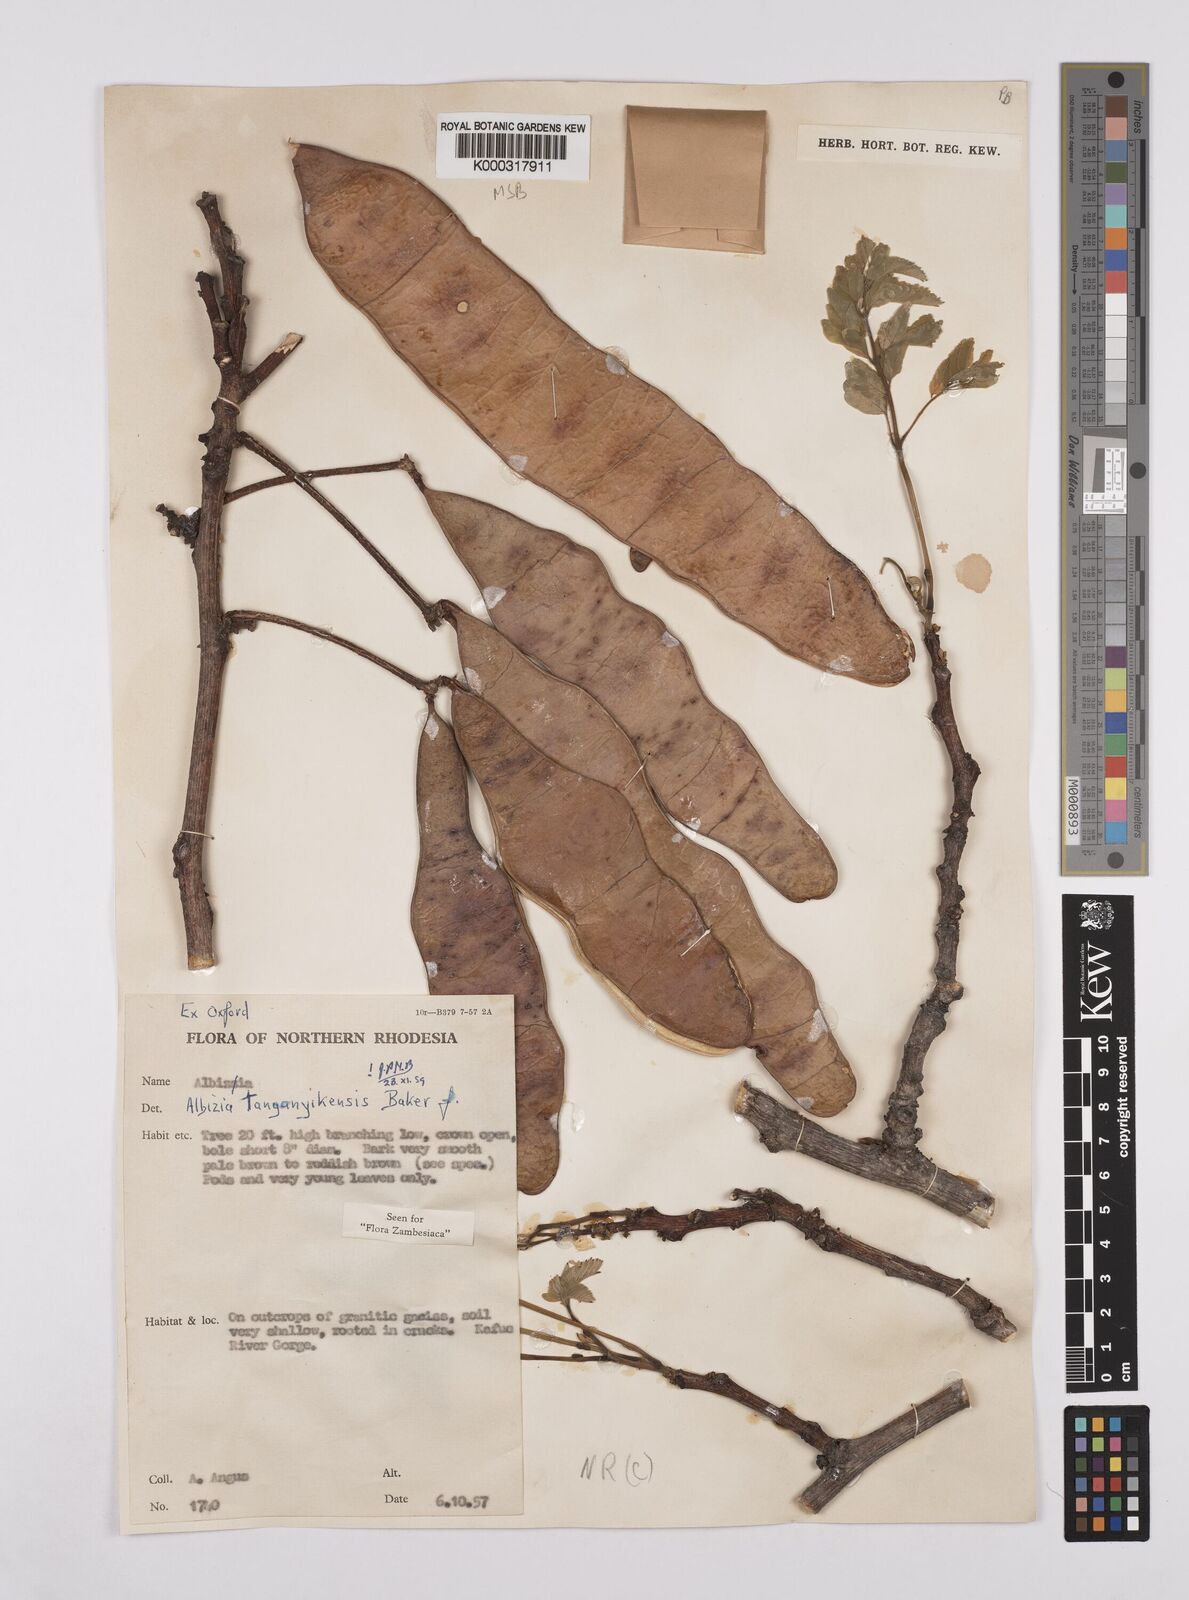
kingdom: Plantae
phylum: Tracheophyta
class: Magnoliopsida
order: Fabales
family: Fabaceae
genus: Albizia
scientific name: Albizia tanganyicensis
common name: Paperbark false thorn
